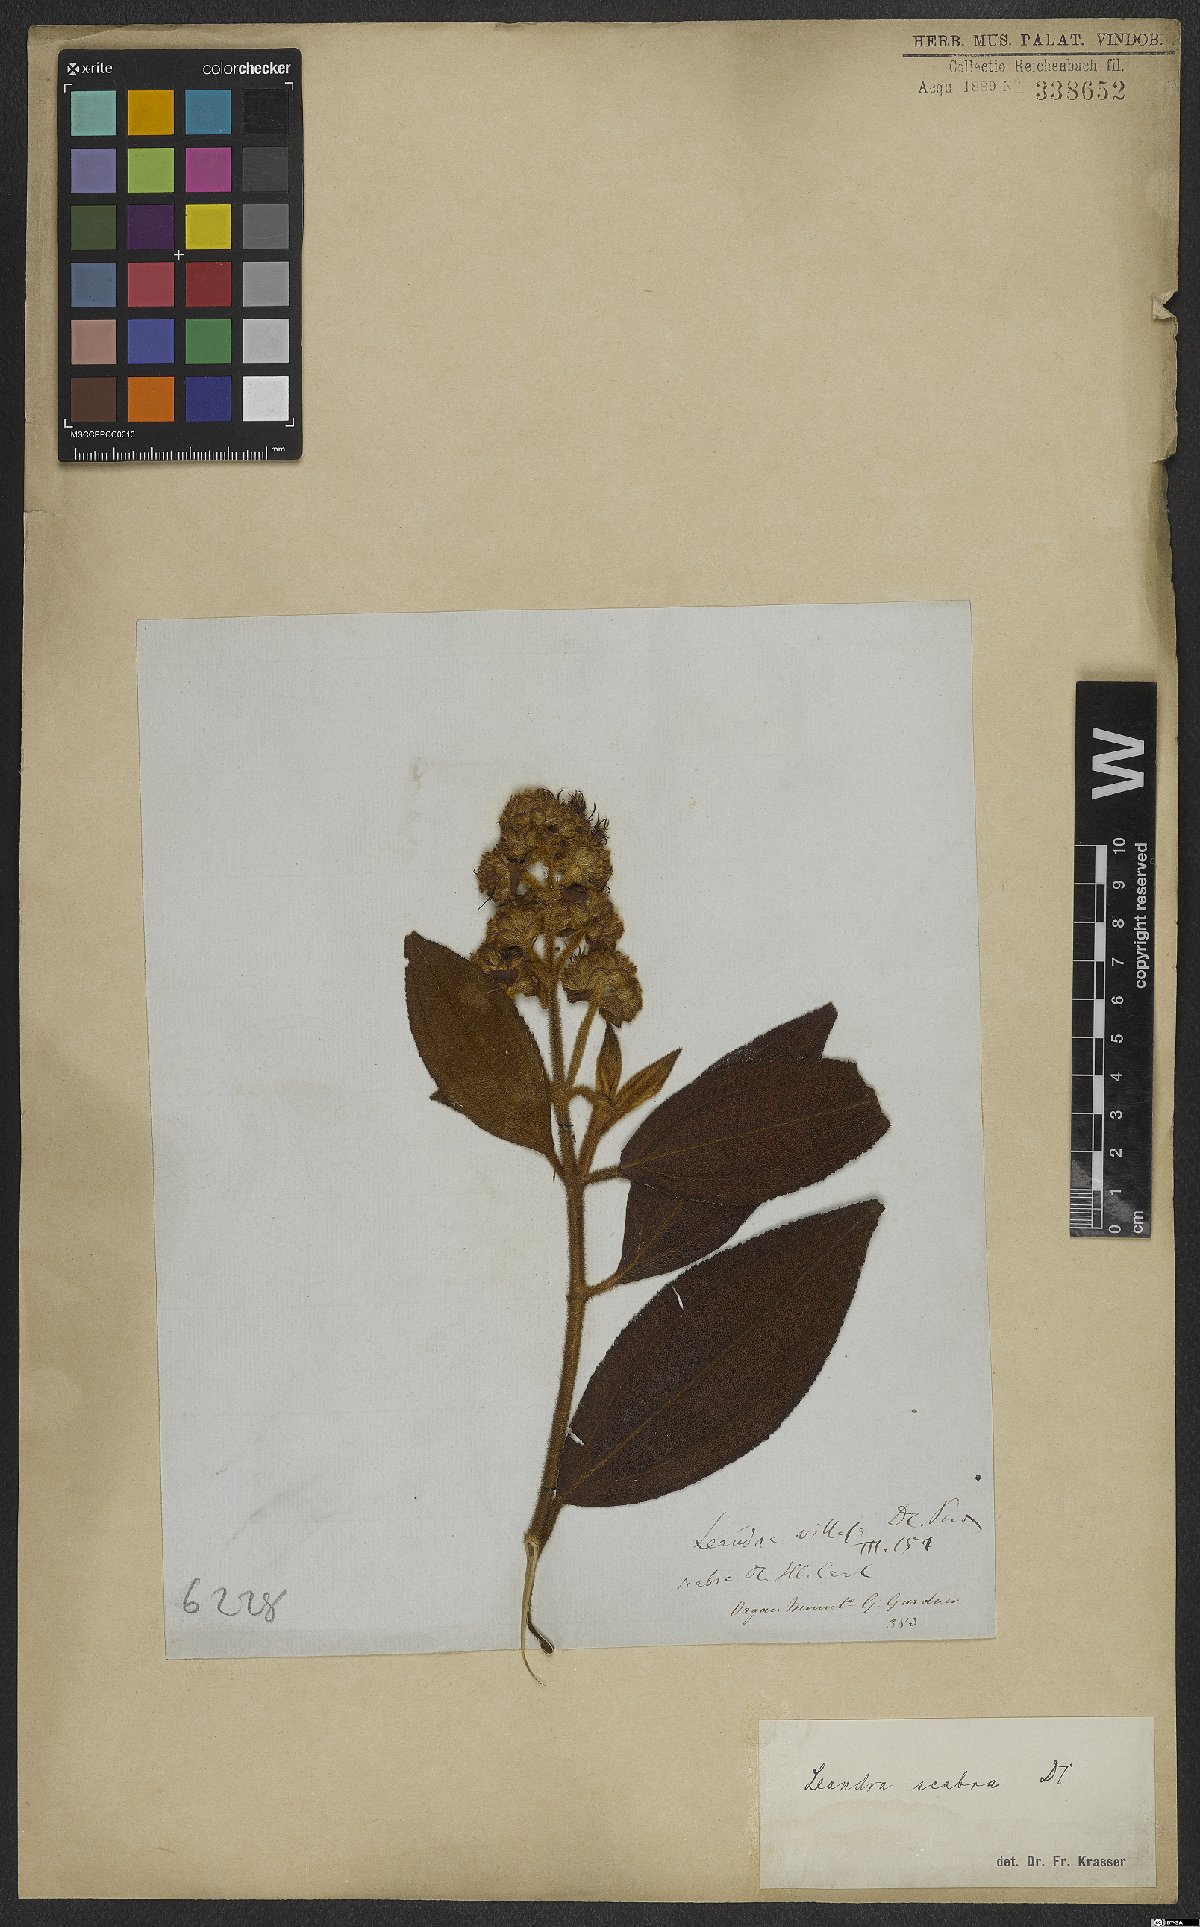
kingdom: Plantae
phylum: Tracheophyta
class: Magnoliopsida
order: Myrtales
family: Melastomataceae
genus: Miconia
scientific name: Miconia melastomoides
